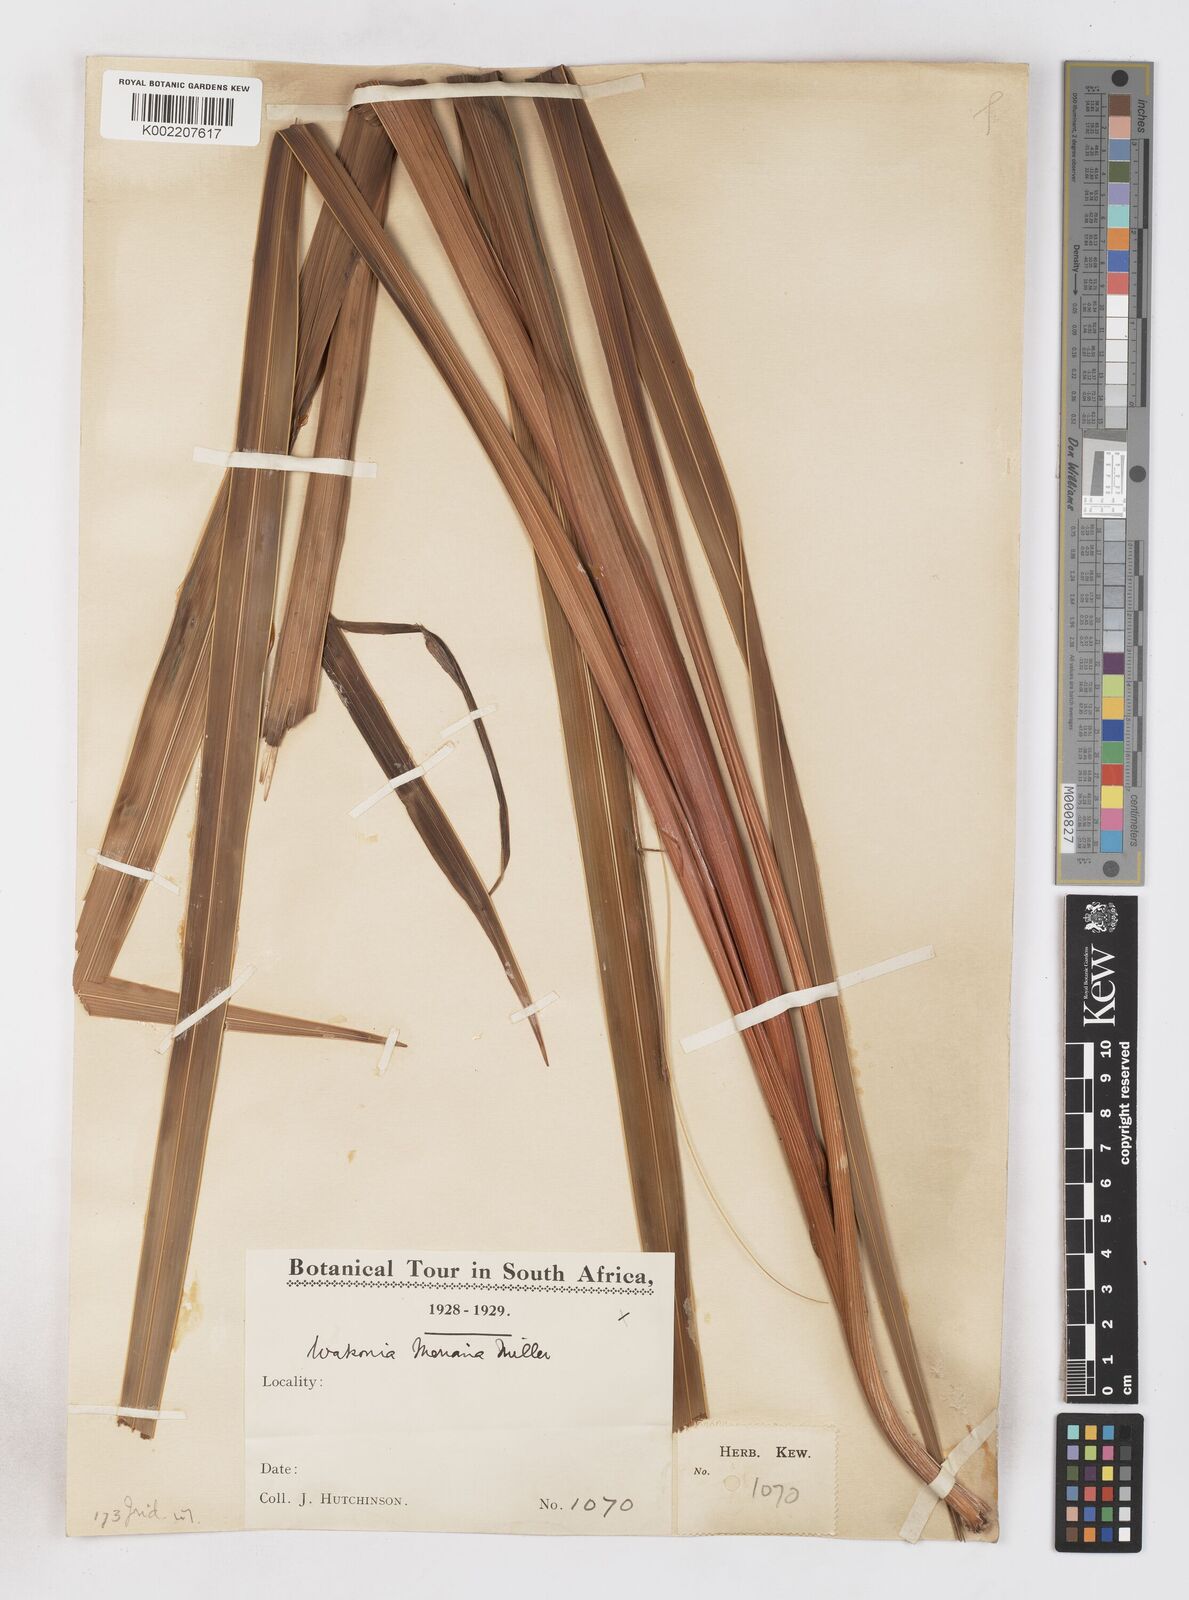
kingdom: Plantae
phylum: Tracheophyta
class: Liliopsida
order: Asparagales
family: Iridaceae
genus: Watsonia
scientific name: Watsonia meriana
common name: Bulbil bugle-lily
